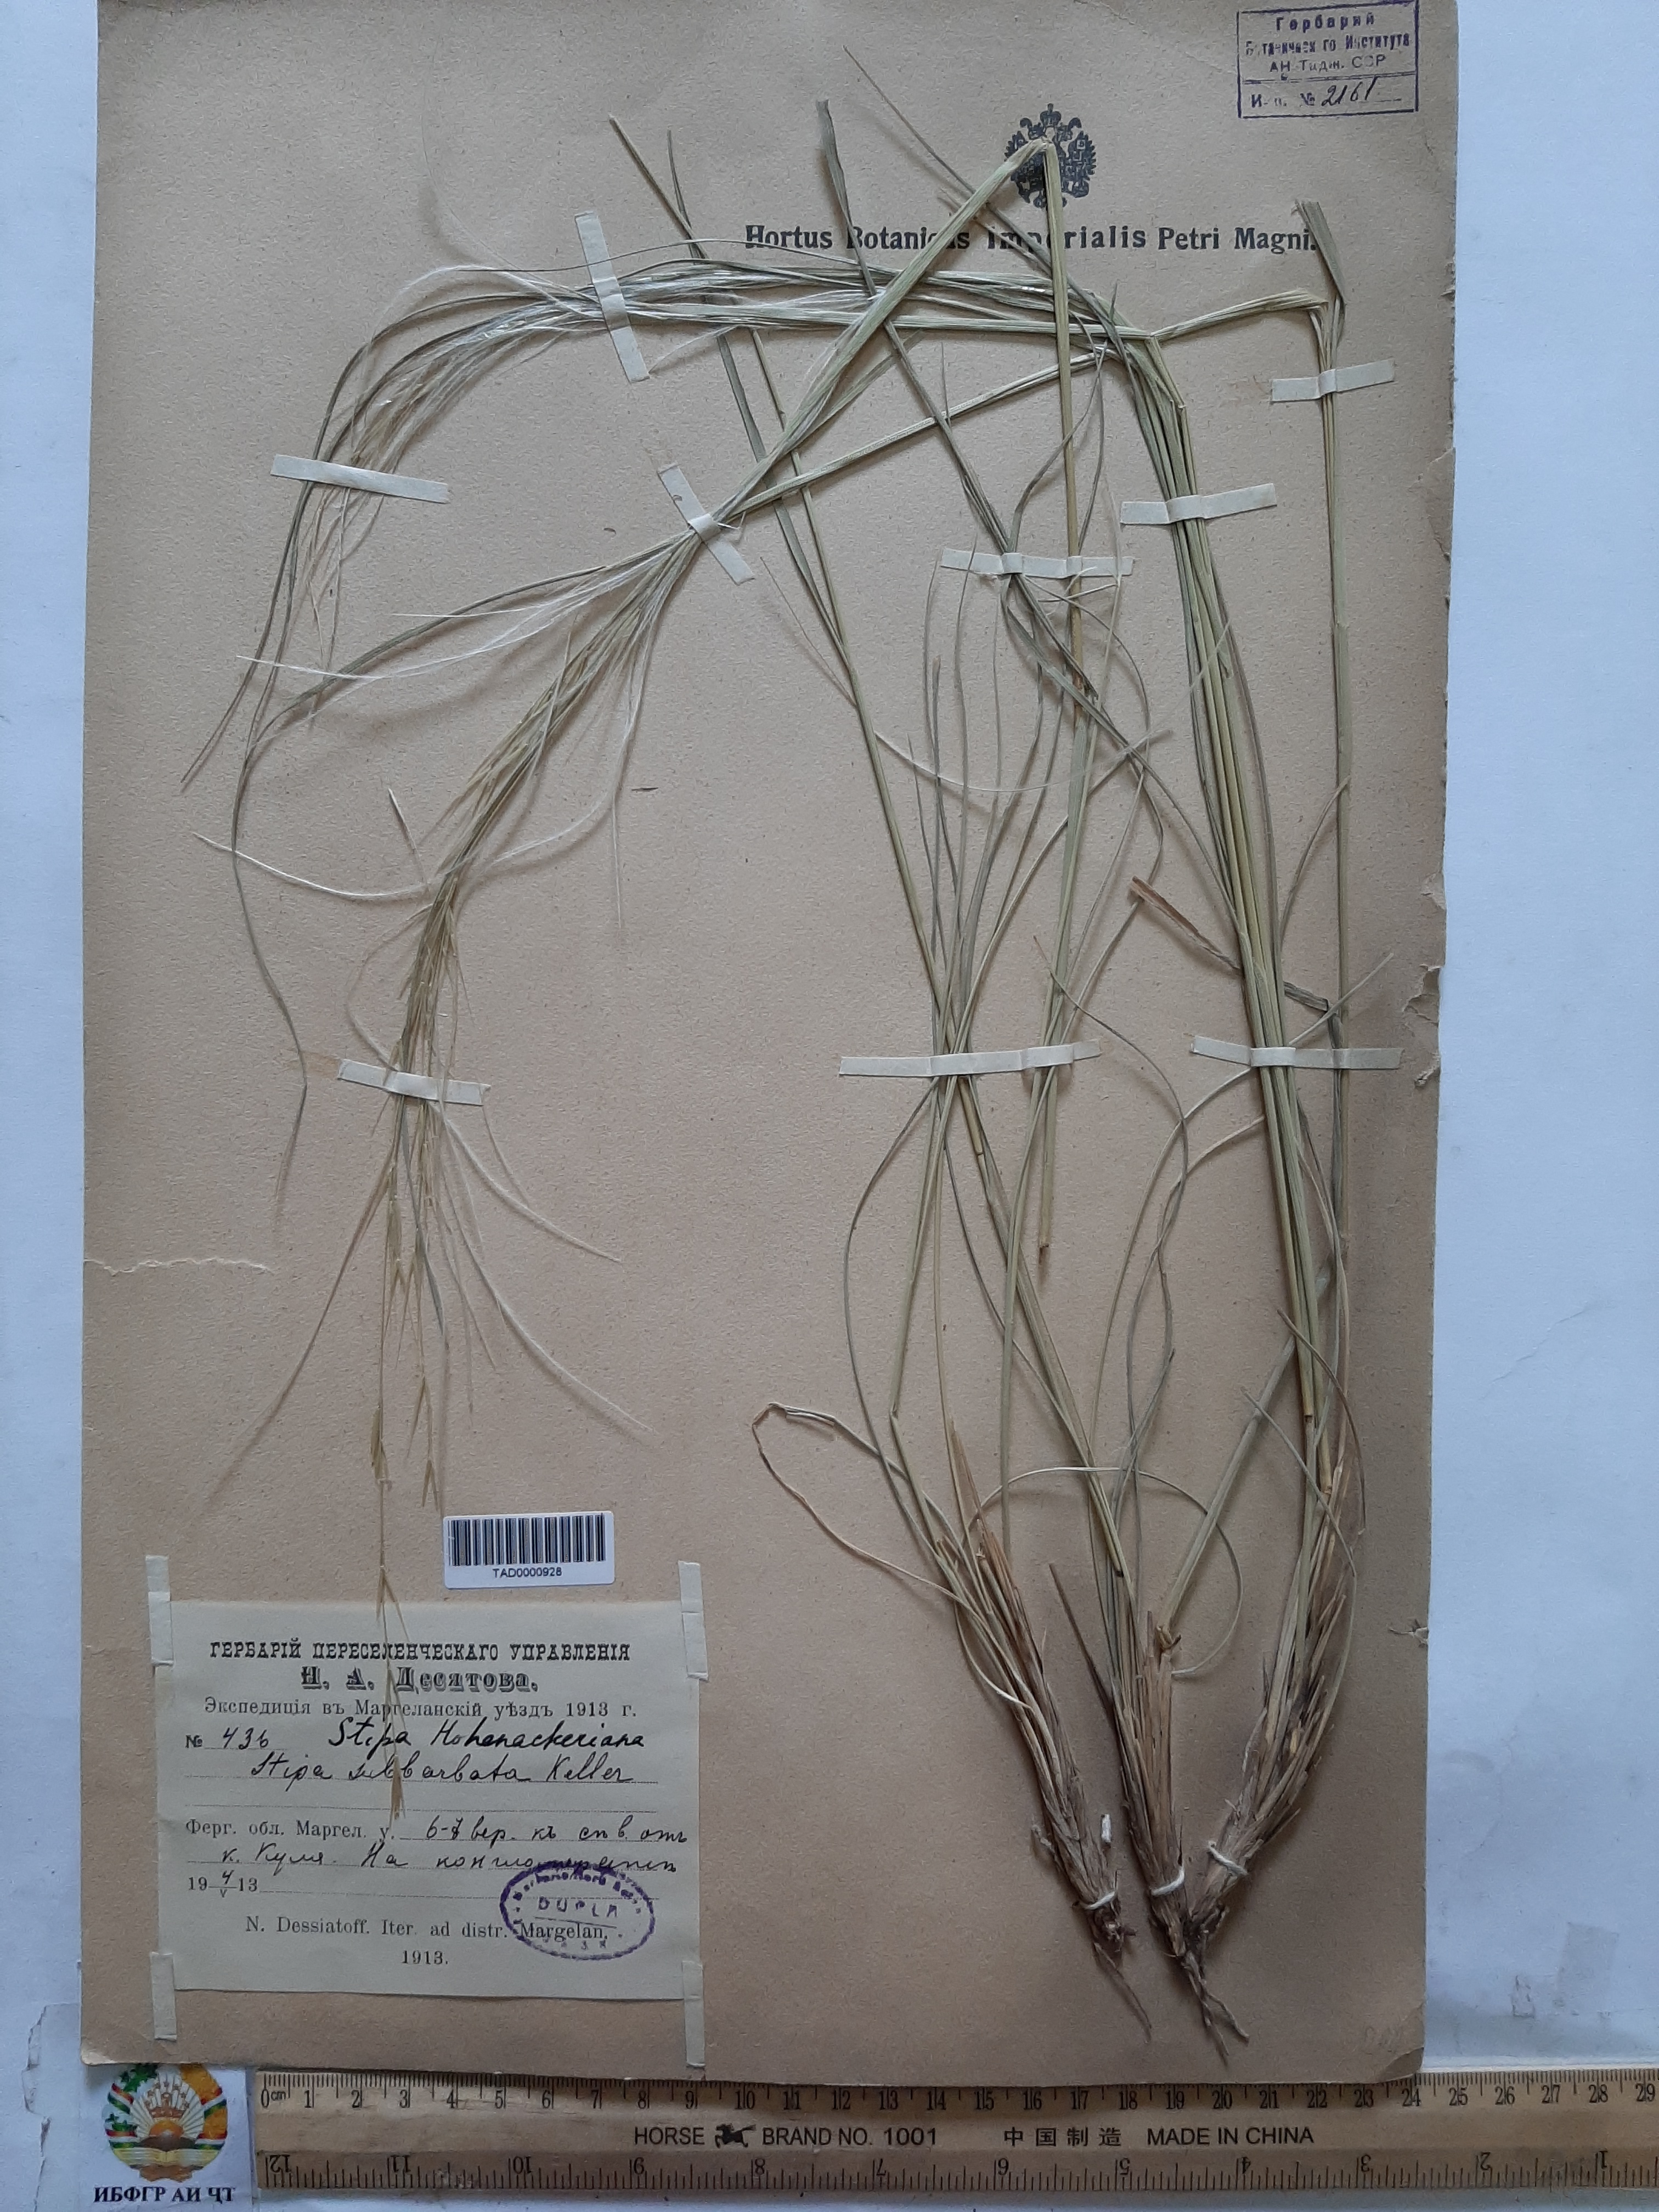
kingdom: Plantae
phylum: Tracheophyta
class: Liliopsida
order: Poales
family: Poaceae
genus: Stipa
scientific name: Stipa hohenackeriana
